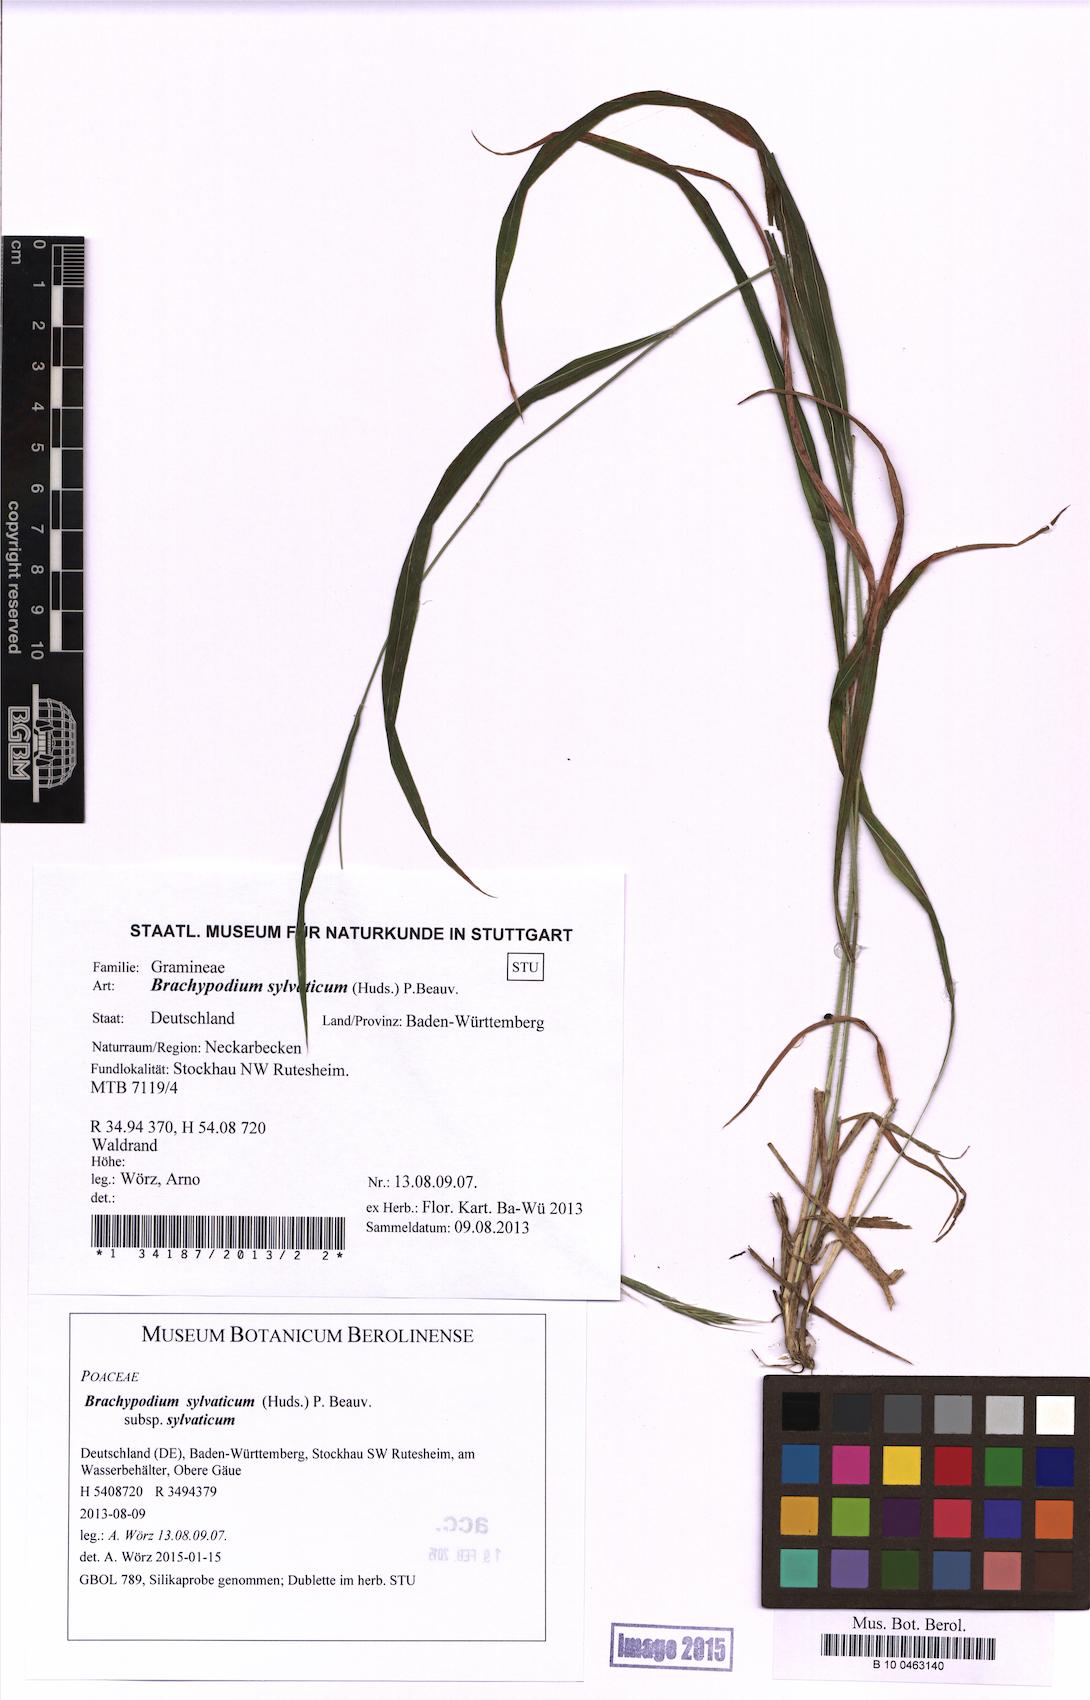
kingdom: Plantae
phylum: Tracheophyta
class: Liliopsida
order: Poales
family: Poaceae
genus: Brachypodium
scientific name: Brachypodium sylvaticum
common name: False-brome
